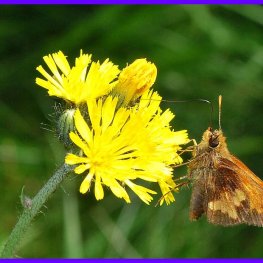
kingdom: Animalia
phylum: Arthropoda
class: Insecta
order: Lepidoptera
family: Hesperiidae
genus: Lon
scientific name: Lon hobomok
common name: Hobomok Skipper
